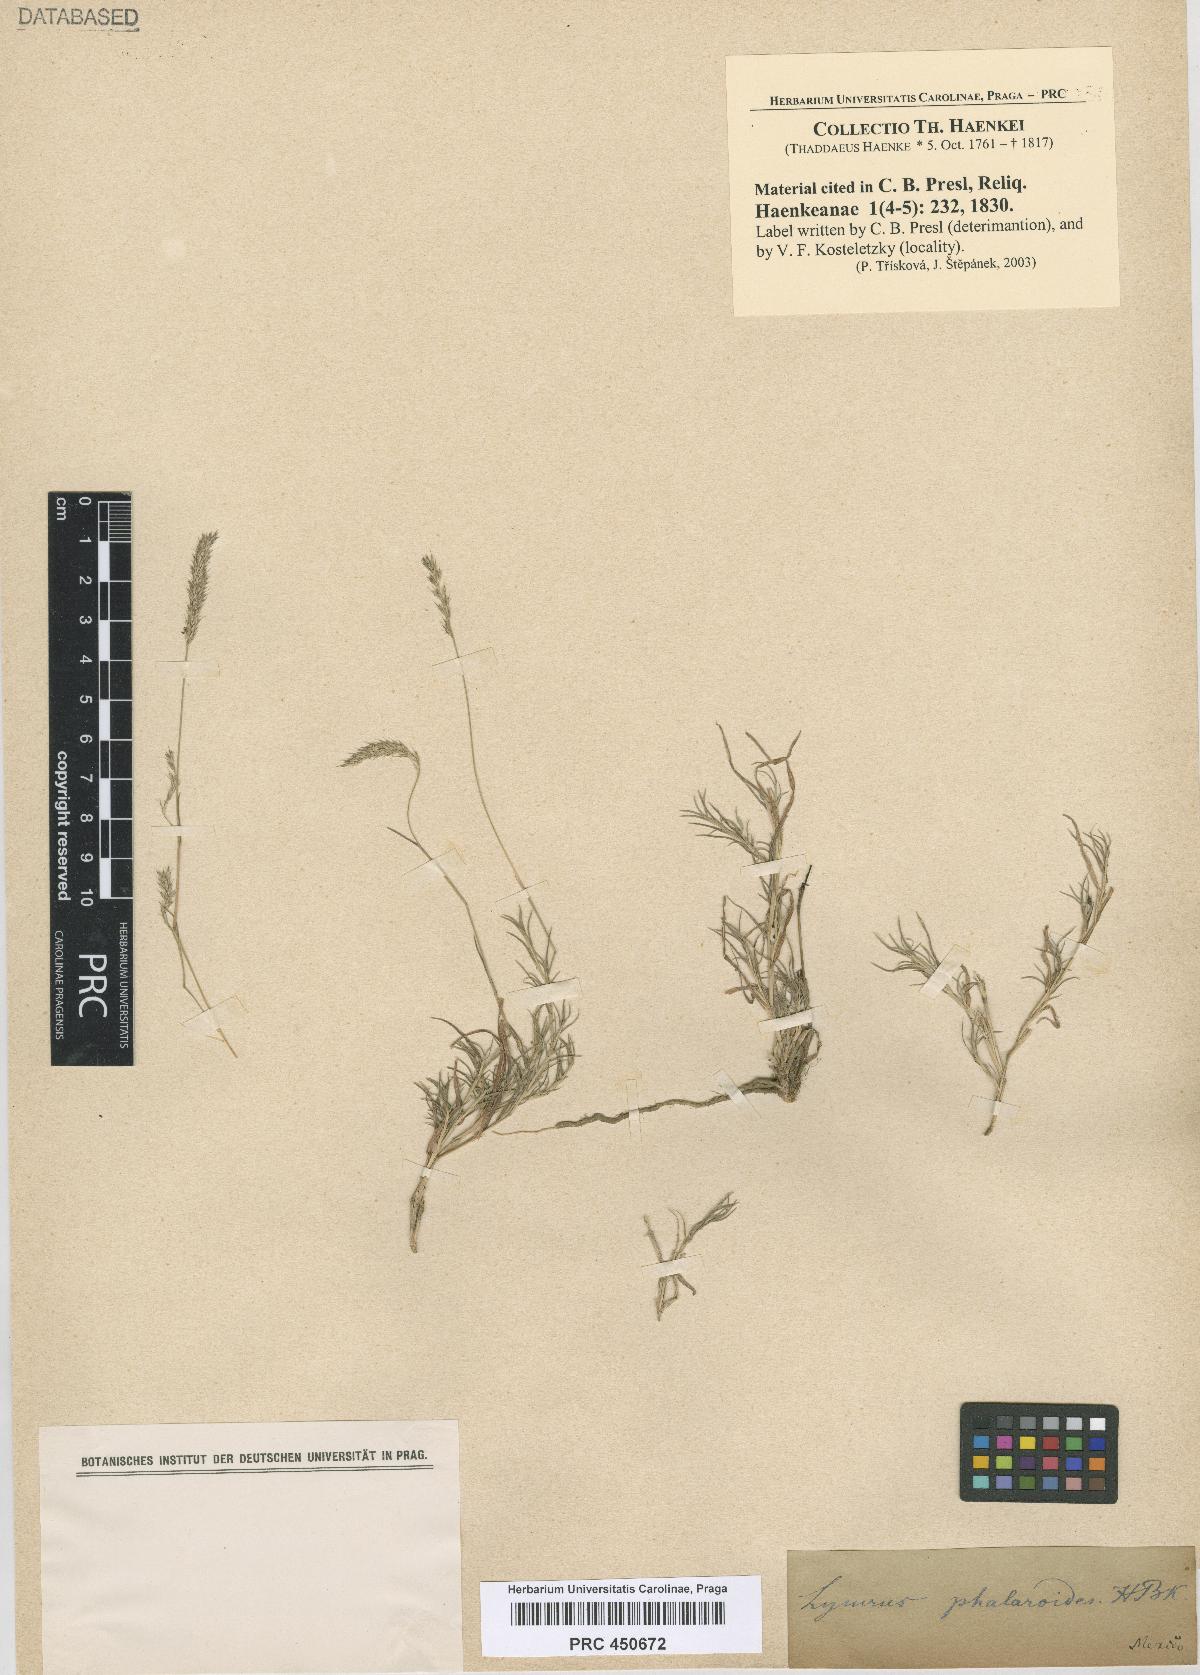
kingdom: Plantae
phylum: Tracheophyta
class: Liliopsida
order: Poales
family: Poaceae
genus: Muhlenbergia
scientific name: Muhlenbergia phalaroides
